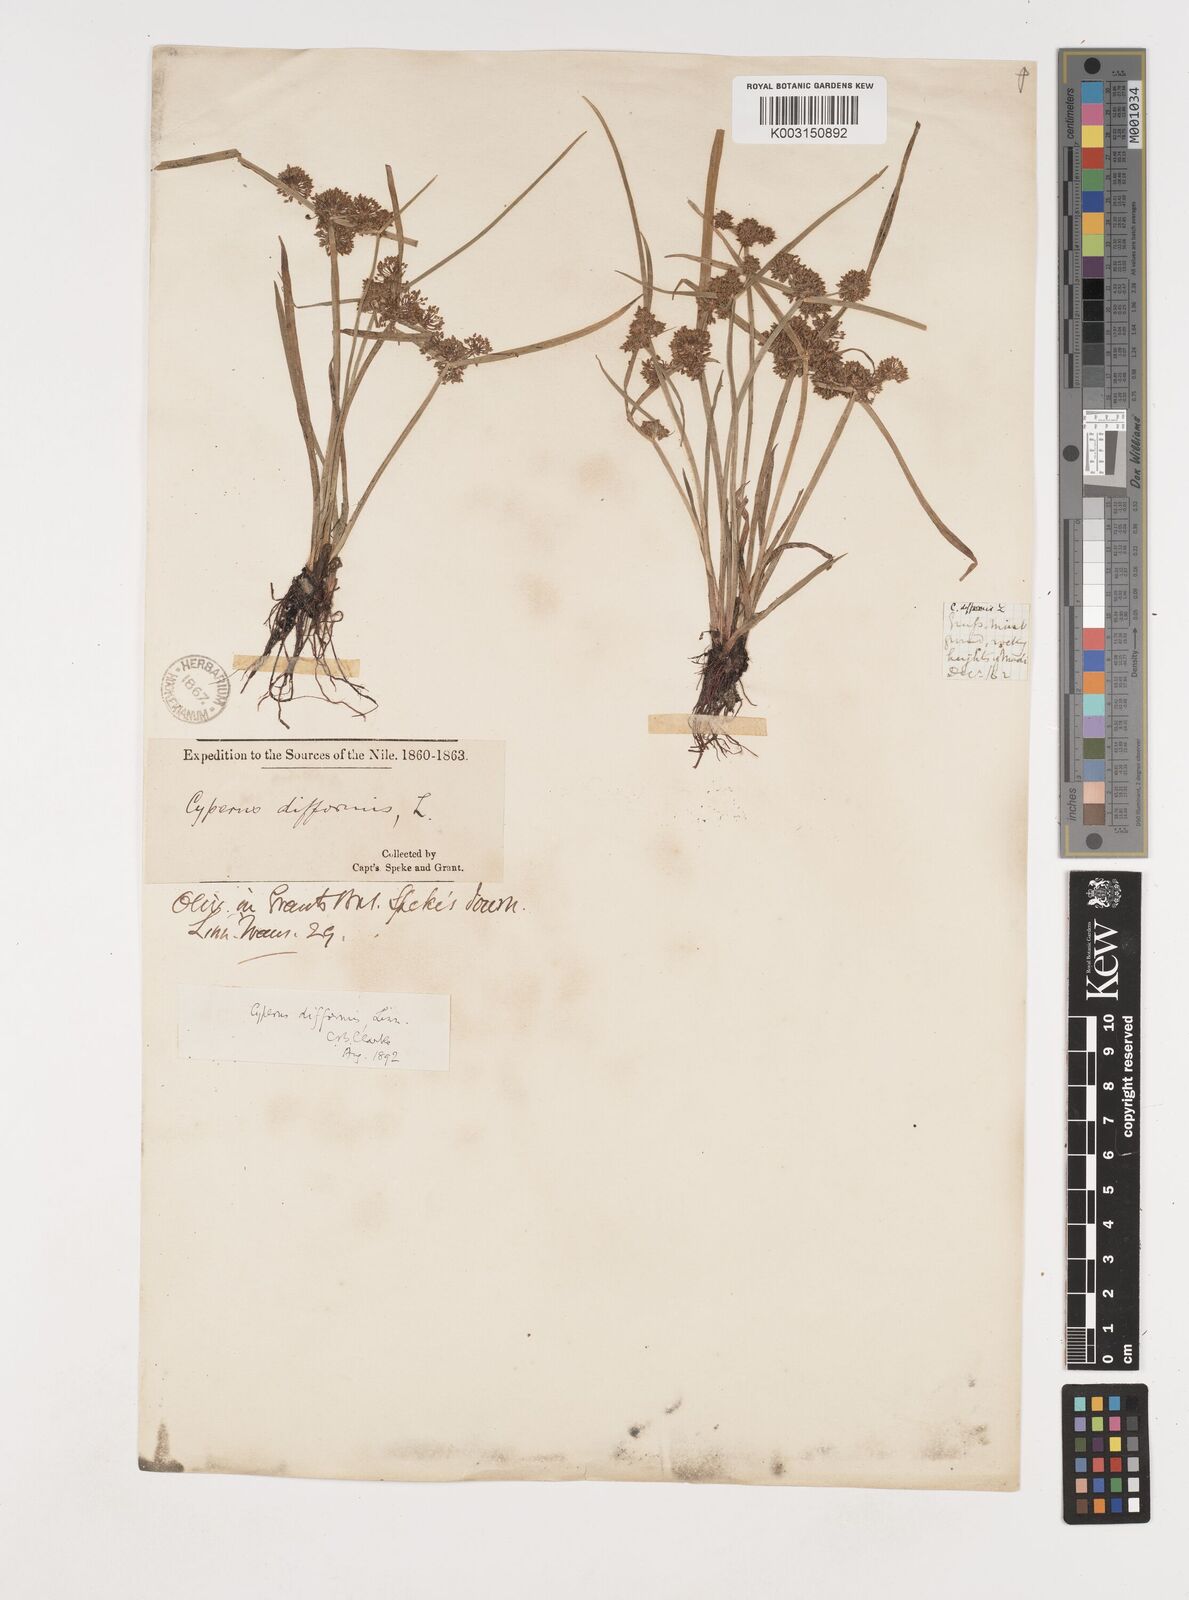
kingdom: Plantae
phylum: Tracheophyta
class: Liliopsida
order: Poales
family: Cyperaceae
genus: Cyperus
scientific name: Cyperus difformis
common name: Variable flatsedge
